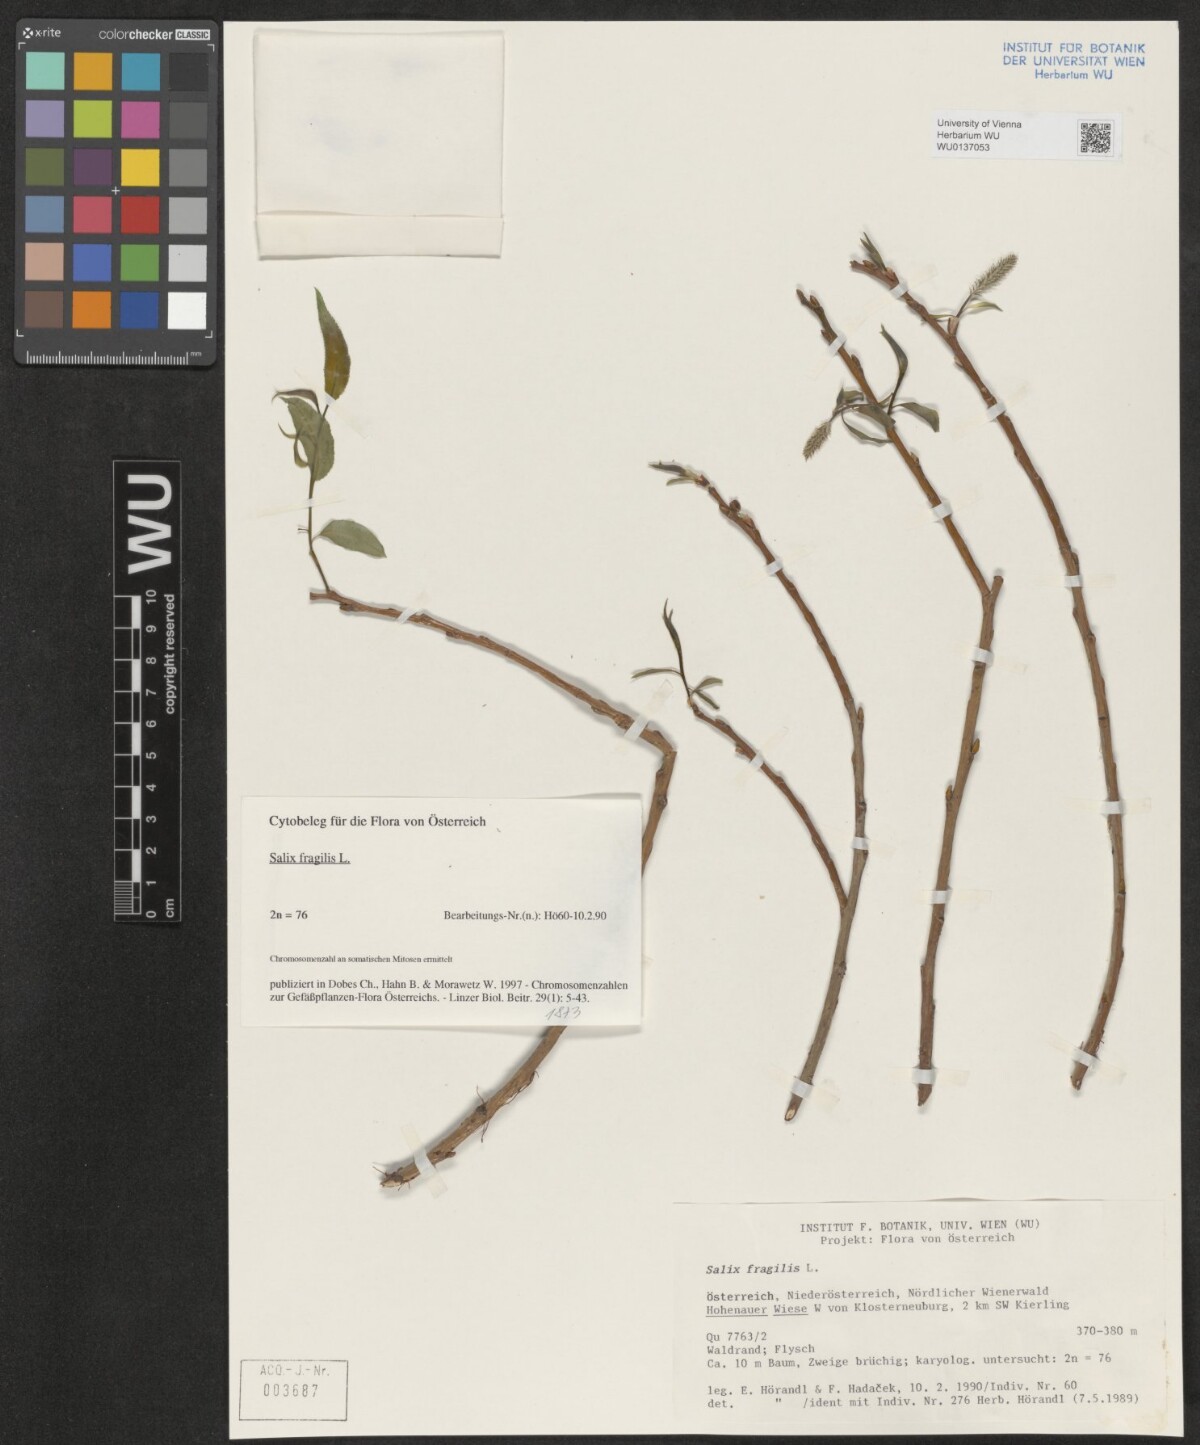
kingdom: Plantae
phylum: Tracheophyta
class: Magnoliopsida
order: Malpighiales
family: Salicaceae
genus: Salix
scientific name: Salix fragilis
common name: Crack willow
